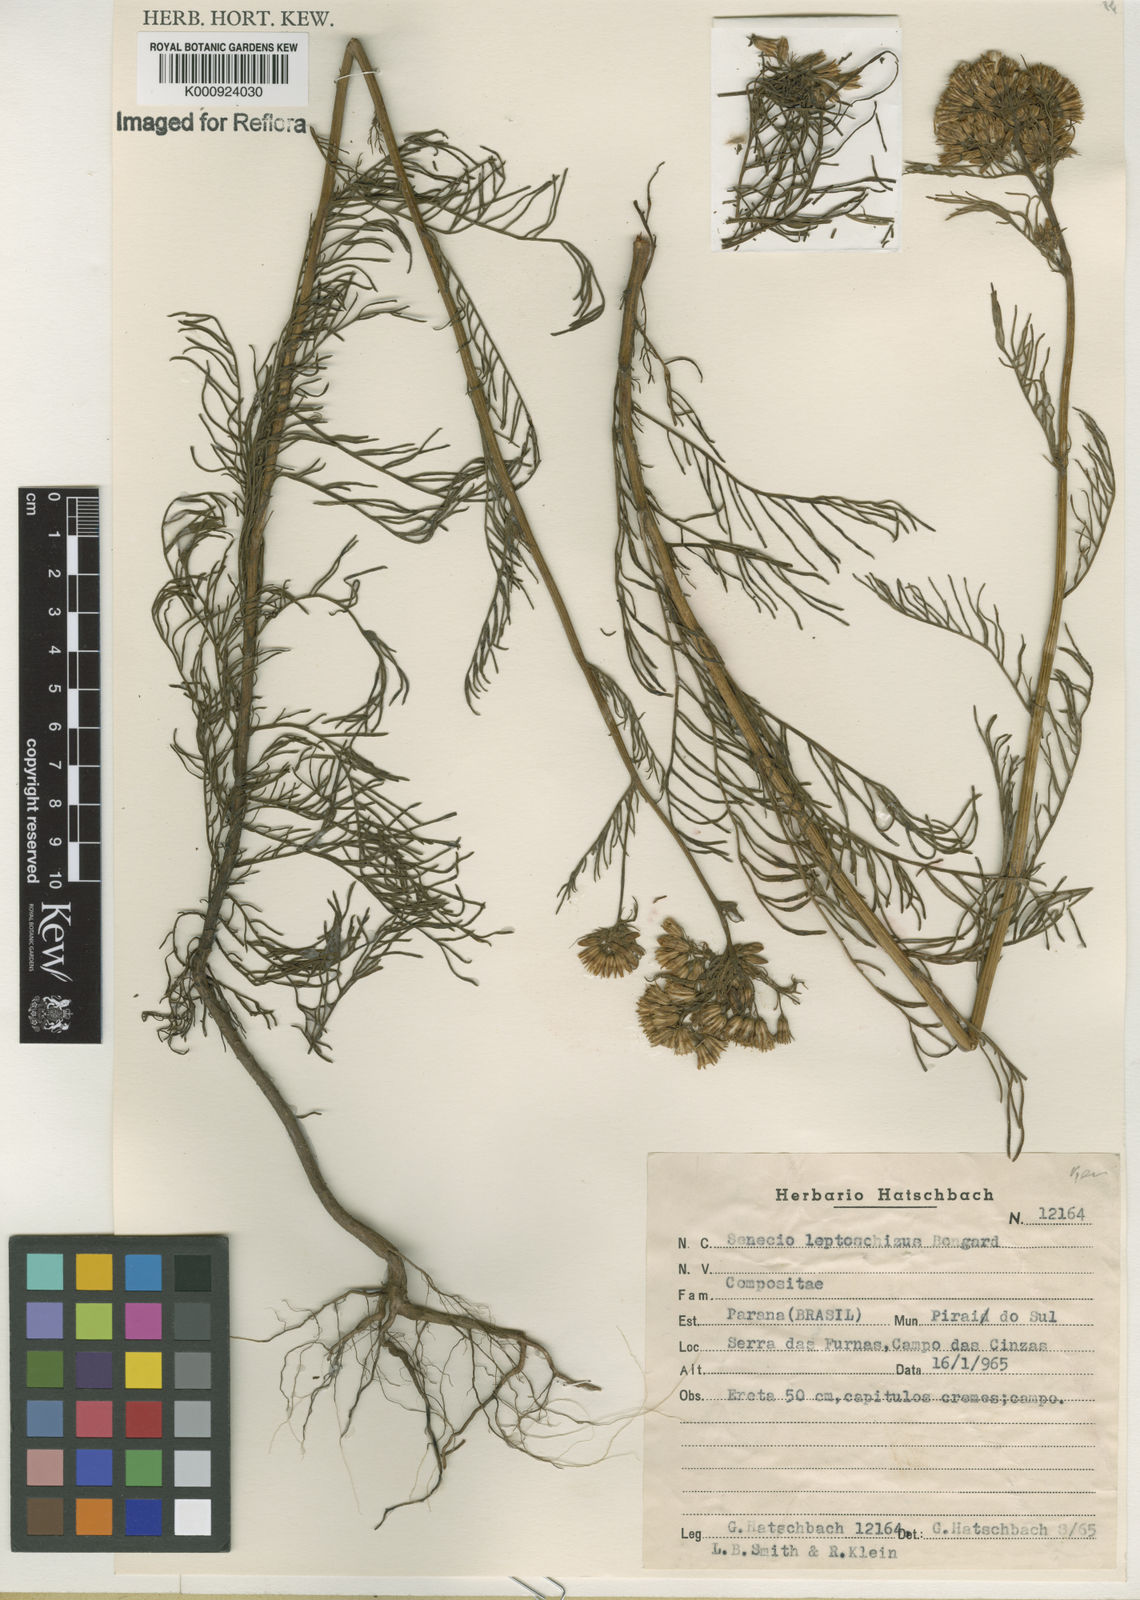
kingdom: Plantae
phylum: Tracheophyta
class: Magnoliopsida
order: Asterales
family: Asteraceae
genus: Senecio
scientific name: Senecio leptoschizus
